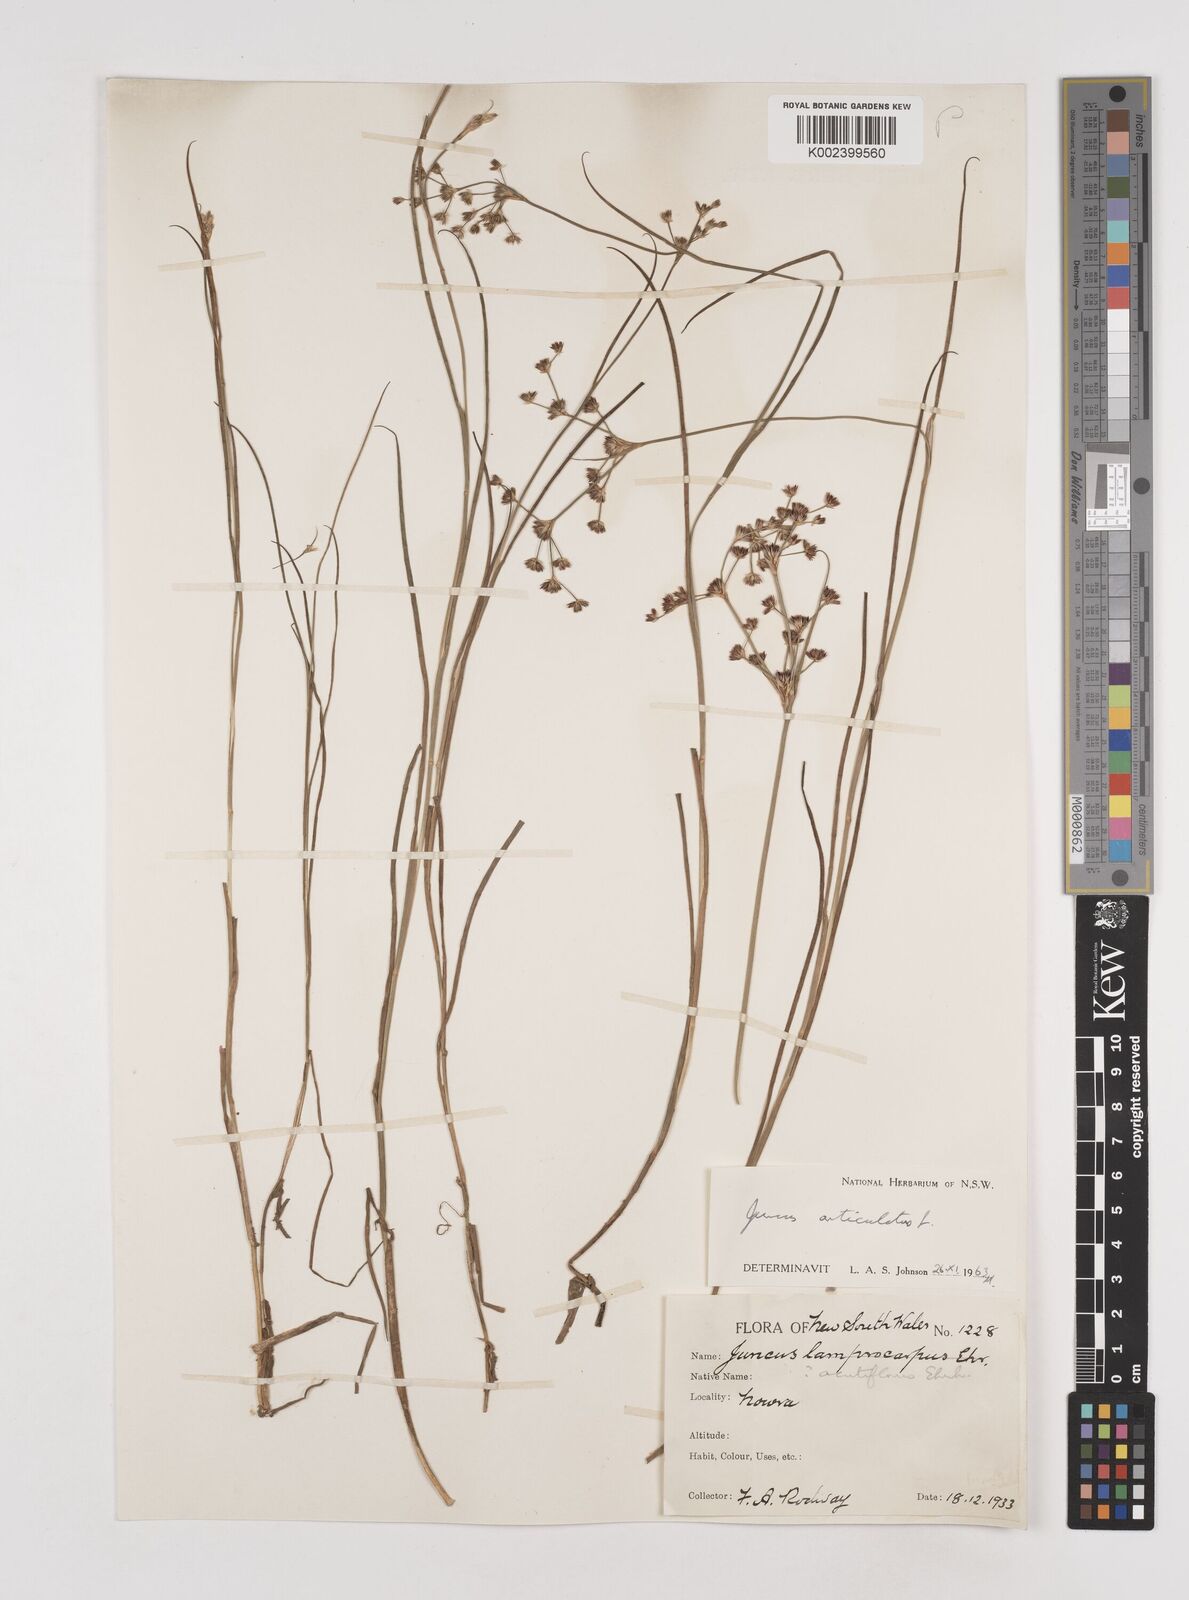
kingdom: Plantae
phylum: Tracheophyta
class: Liliopsida
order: Poales
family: Juncaceae
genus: Juncus
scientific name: Juncus articulatus
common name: Jointed rush
